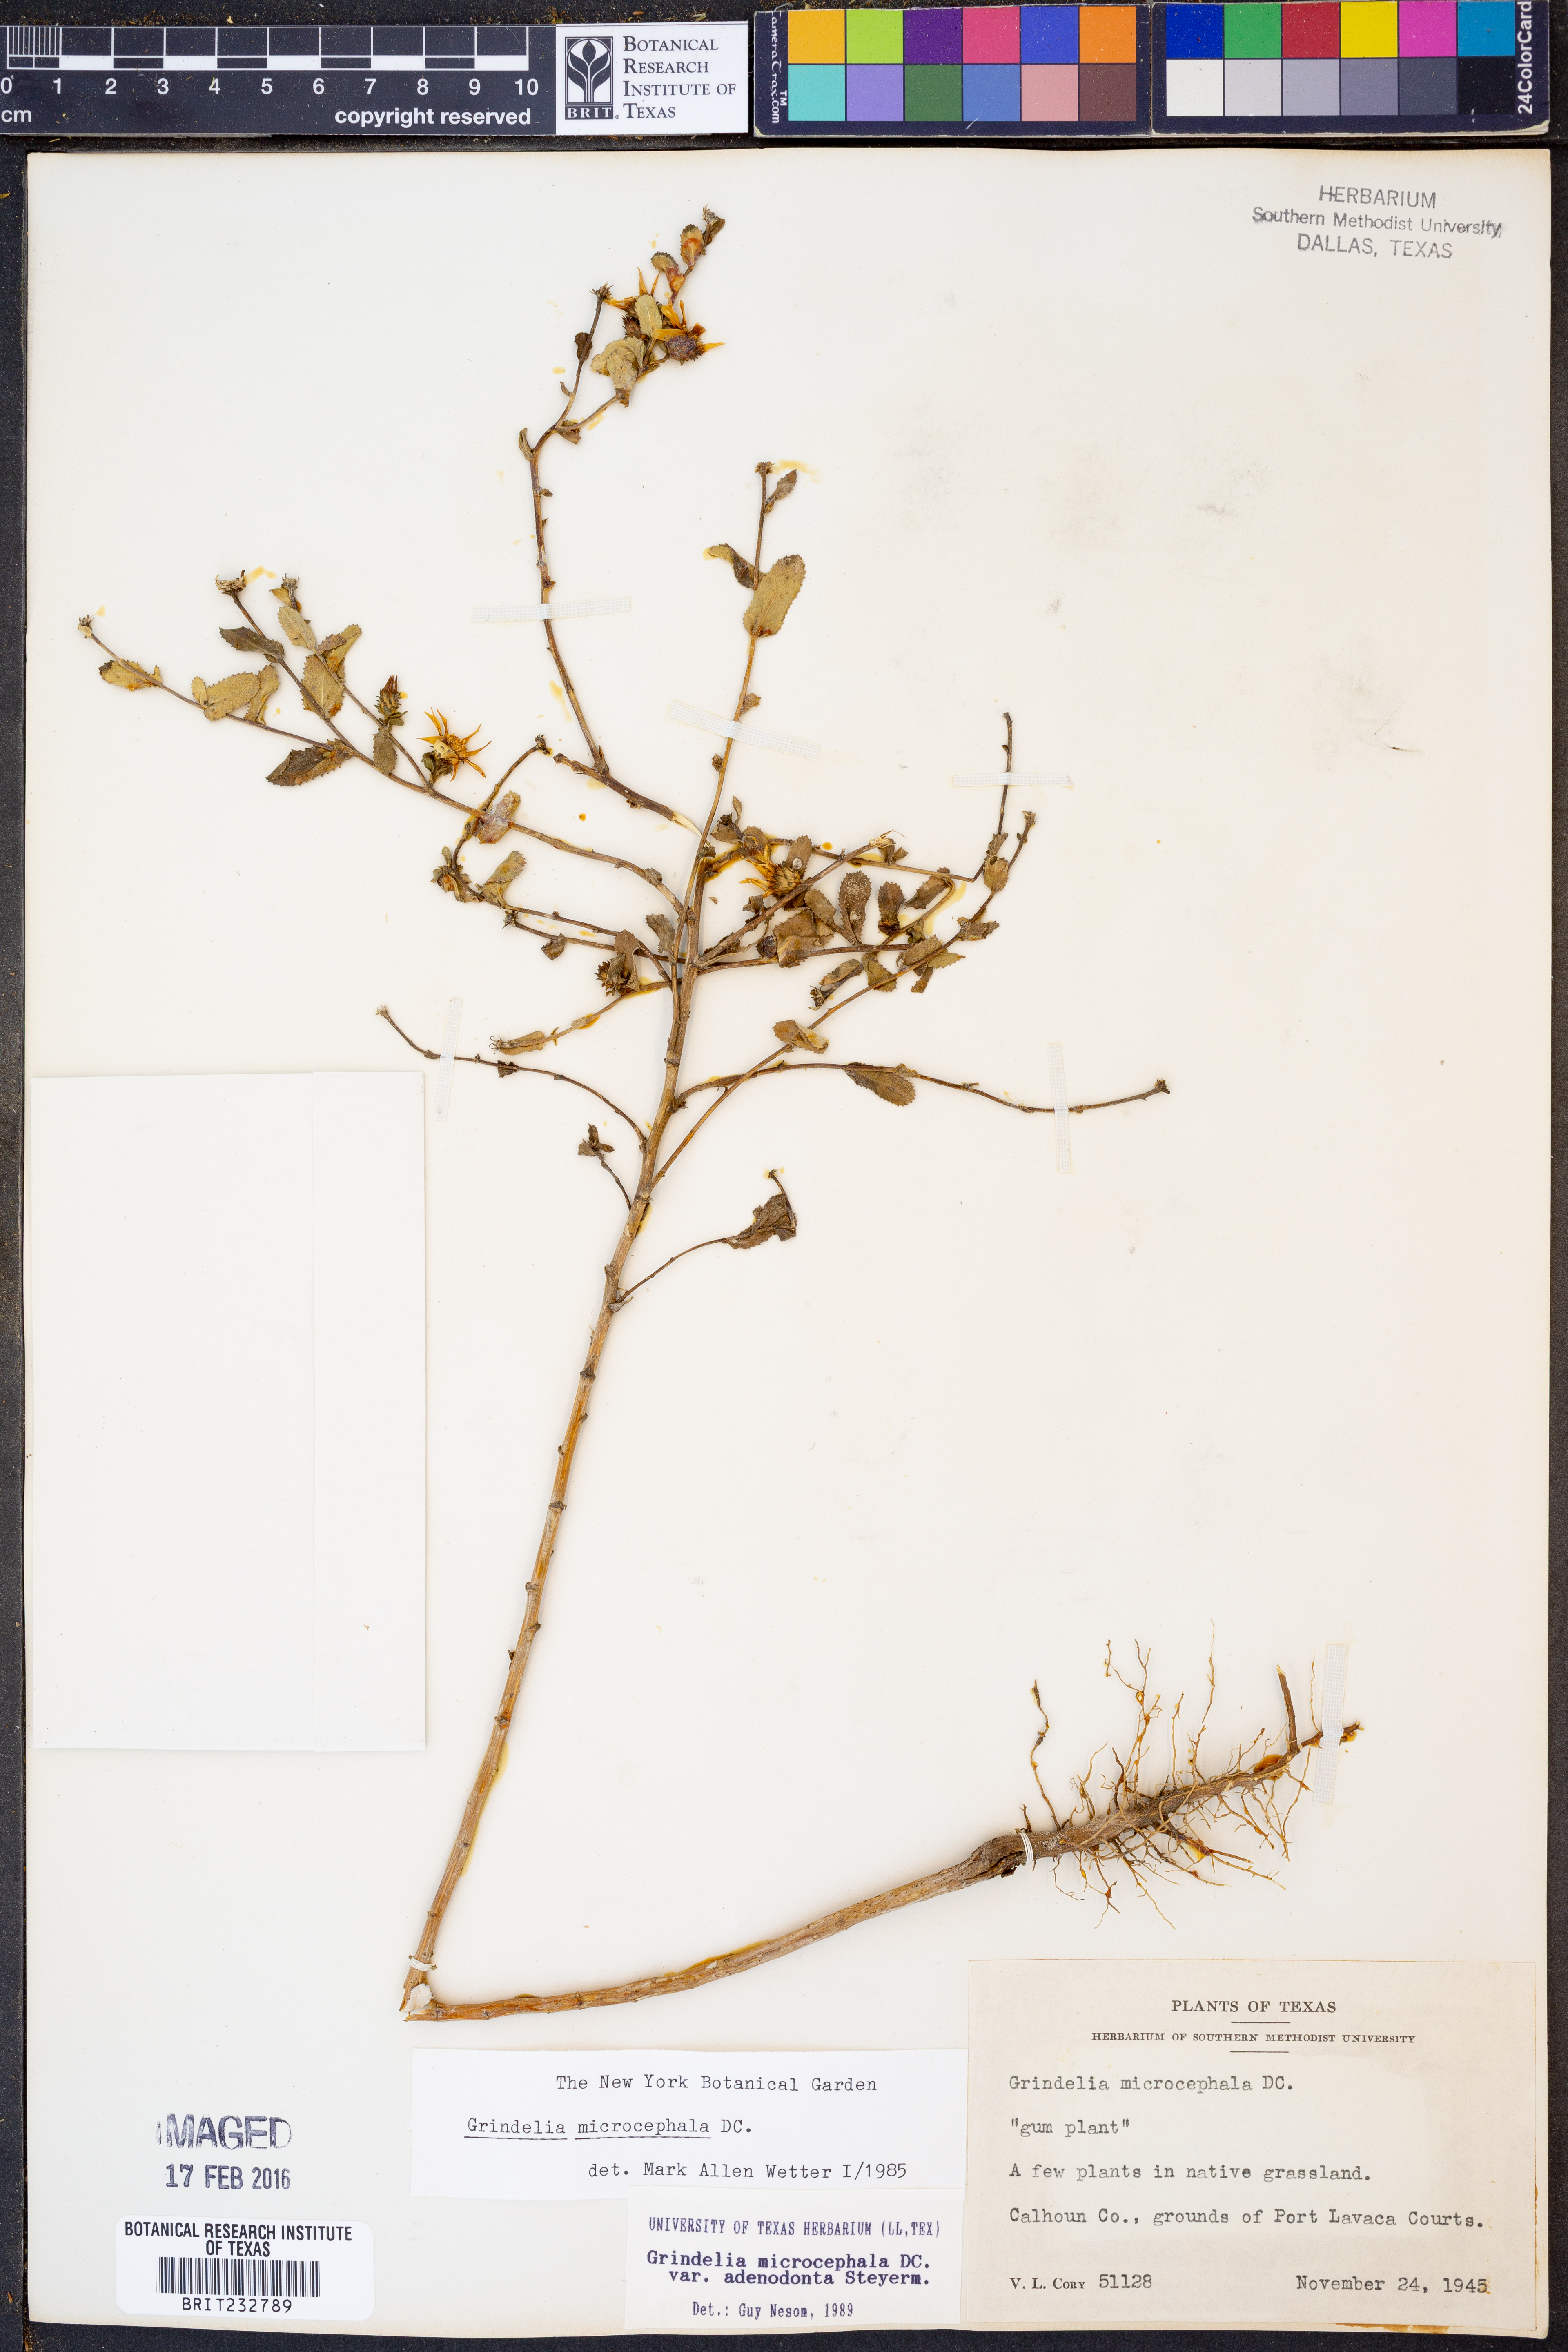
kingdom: Plantae
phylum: Tracheophyta
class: Magnoliopsida
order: Asterales
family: Asteraceae
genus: Grindelia
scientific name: Grindelia adenodonta
